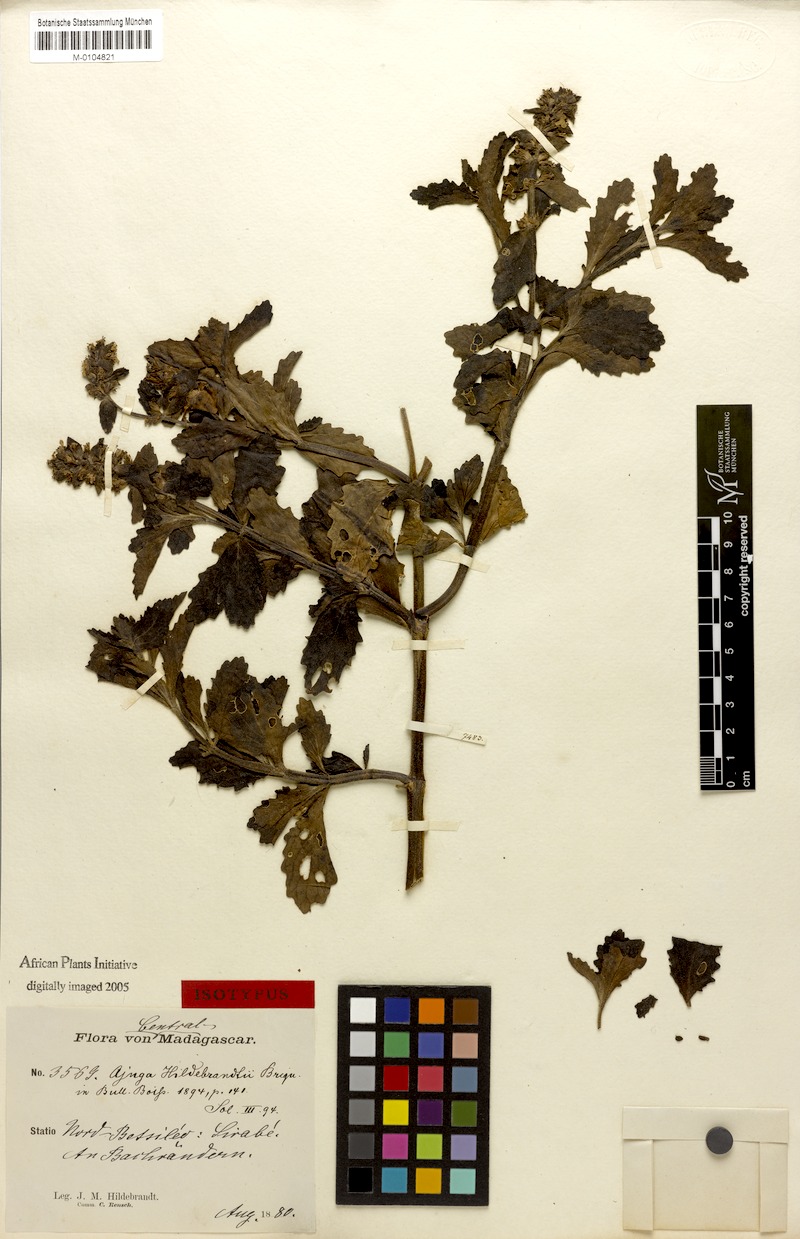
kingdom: Plantae
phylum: Tracheophyta
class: Magnoliopsida
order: Lamiales
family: Lamiaceae
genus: Ajuga
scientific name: Ajuga robusta
